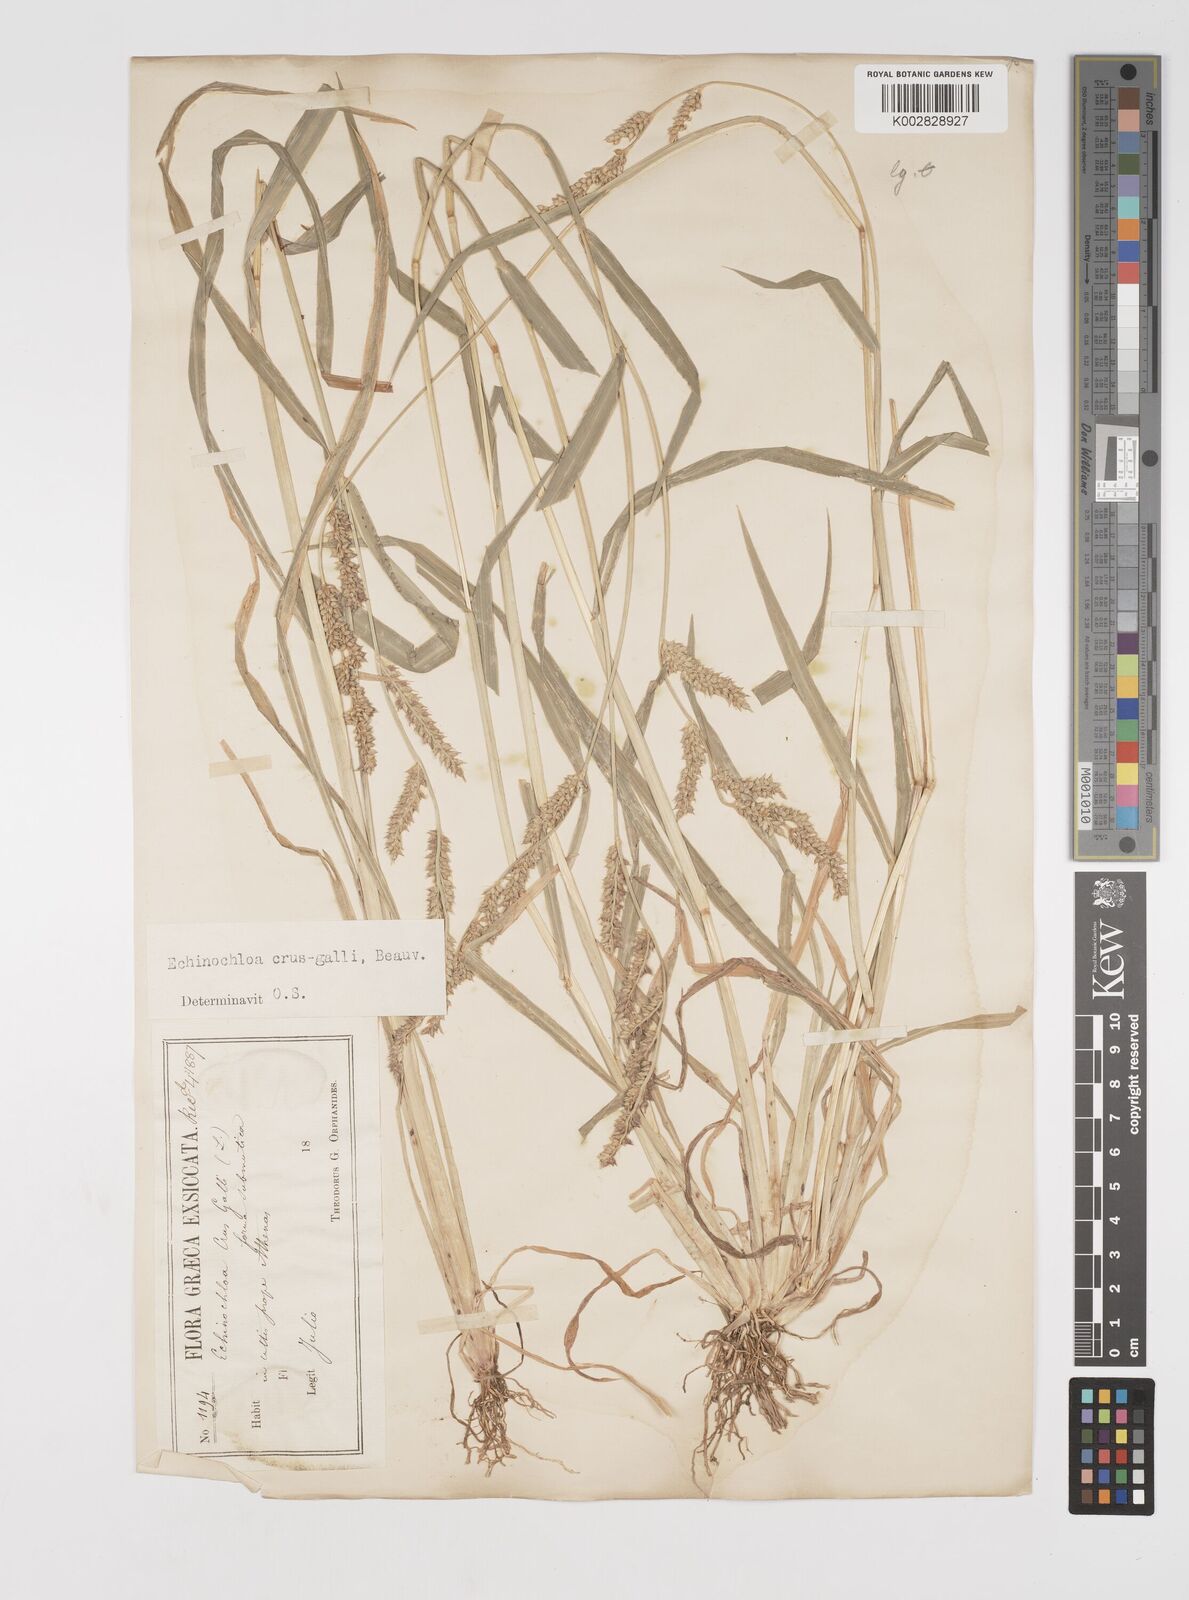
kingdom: Plantae
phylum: Tracheophyta
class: Liliopsida
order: Poales
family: Poaceae
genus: Echinochloa
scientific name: Echinochloa crus-galli
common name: Cockspur
